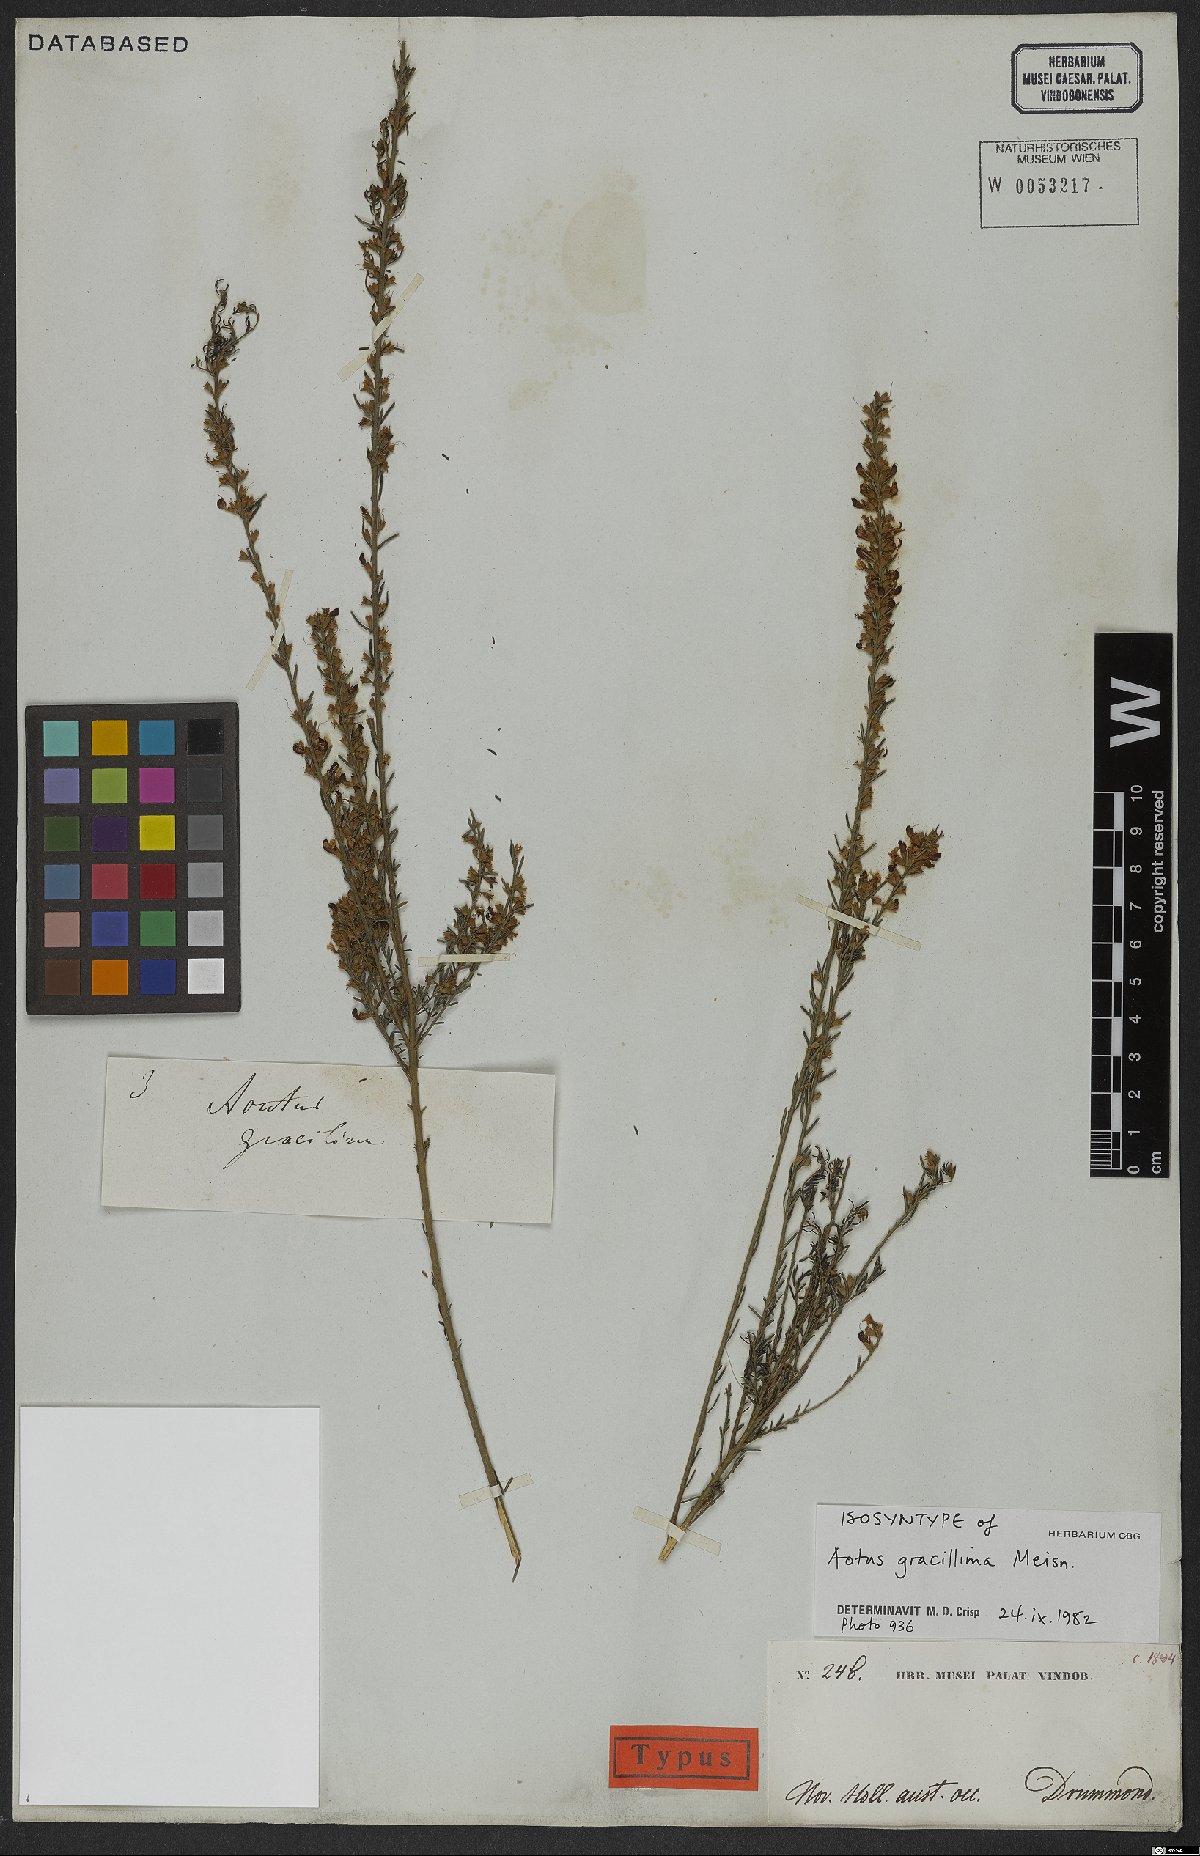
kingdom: Plantae
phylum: Tracheophyta
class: Magnoliopsida
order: Fabales
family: Fabaceae
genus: Aotus
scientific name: Aotus gracillima
